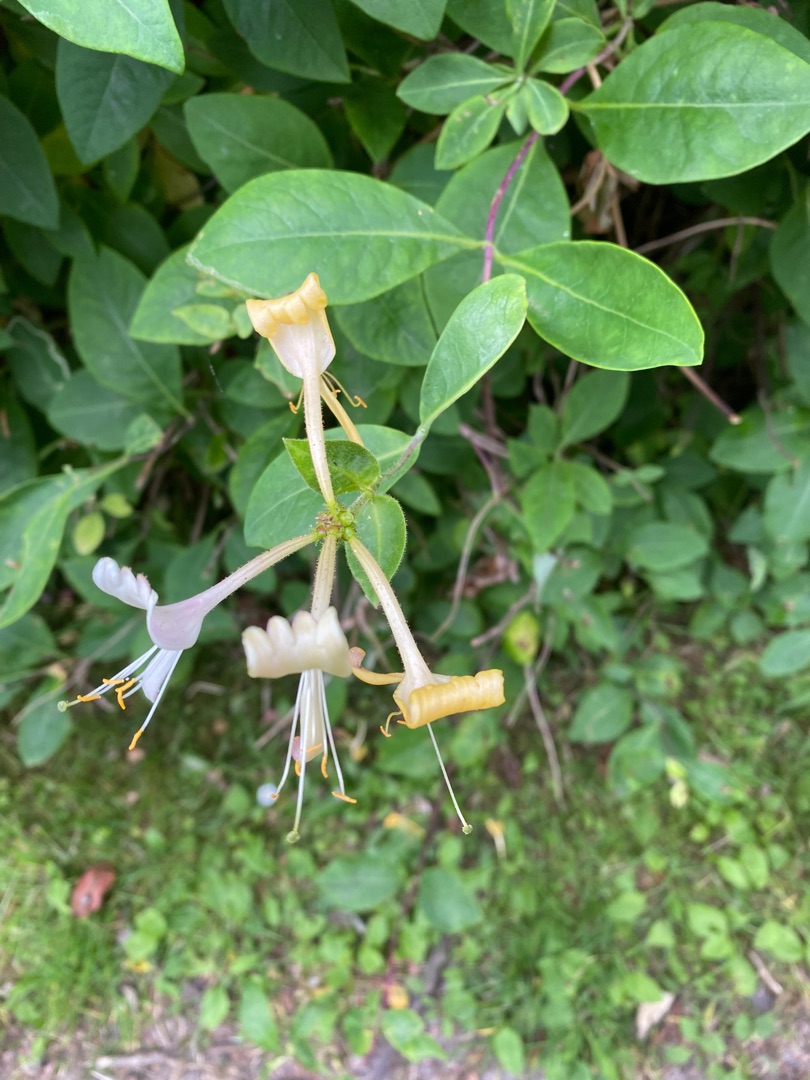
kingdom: Plantae
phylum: Tracheophyta
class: Magnoliopsida
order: Dipsacales
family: Caprifoliaceae
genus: Lonicera
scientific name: Lonicera periclymenum
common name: Almindelig gedeblad
